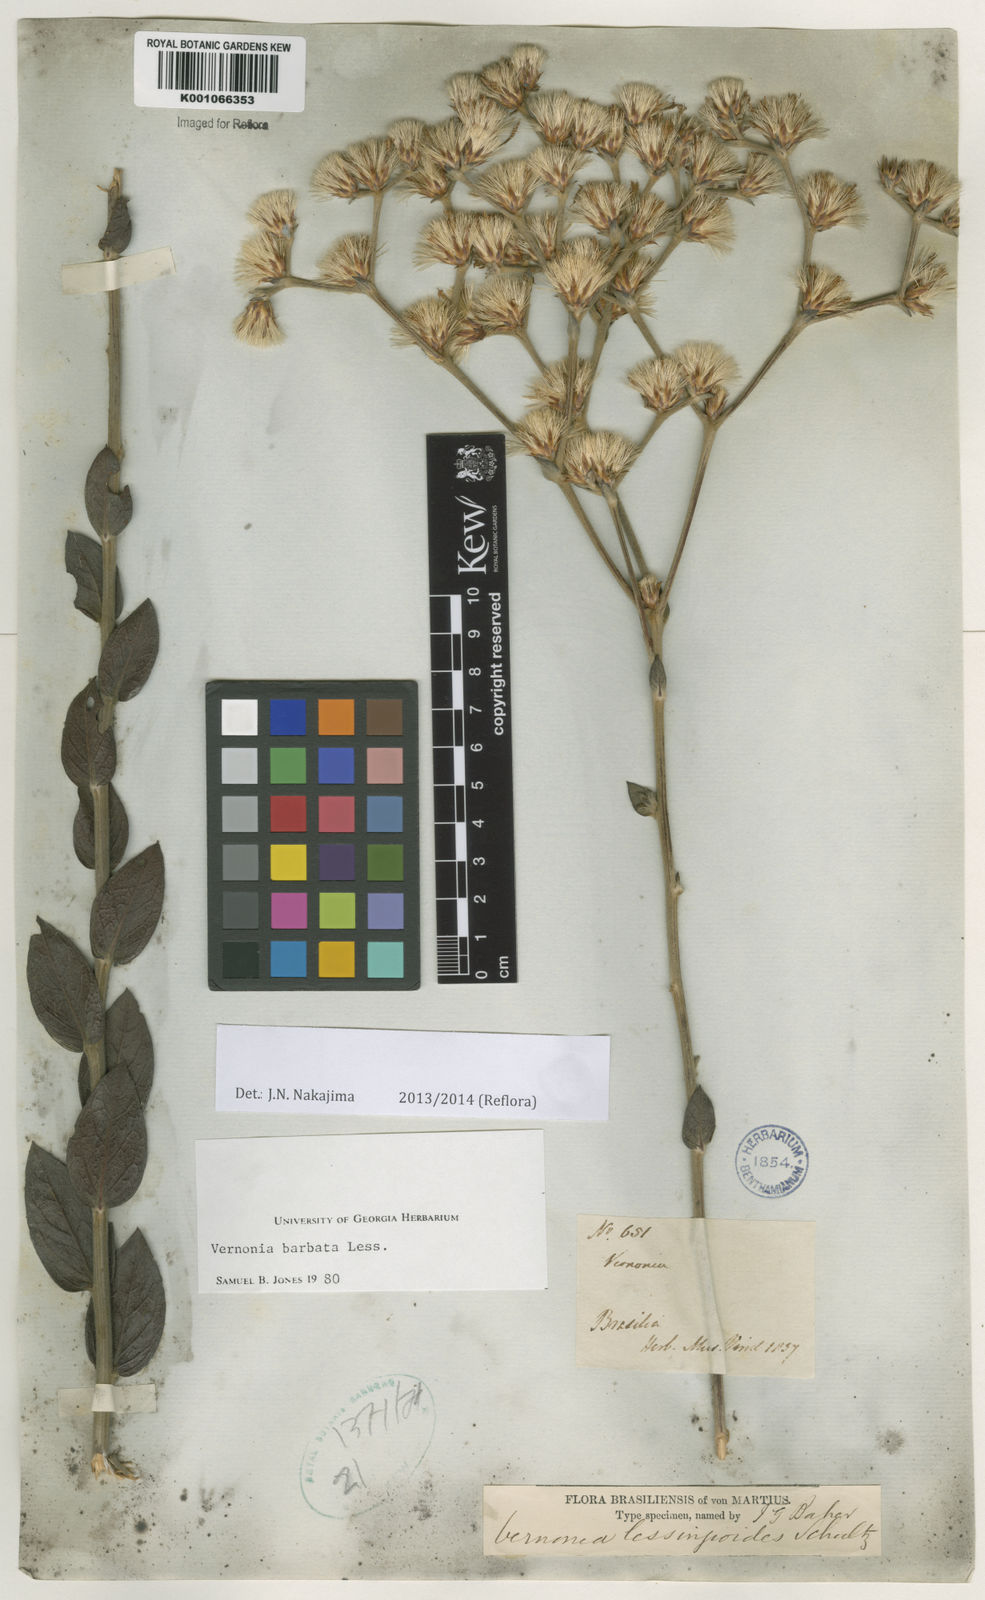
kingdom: Plantae
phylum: Tracheophyta
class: Magnoliopsida
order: Asterales
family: Asteraceae
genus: Lepidaploa
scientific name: Lepidaploa barbata
